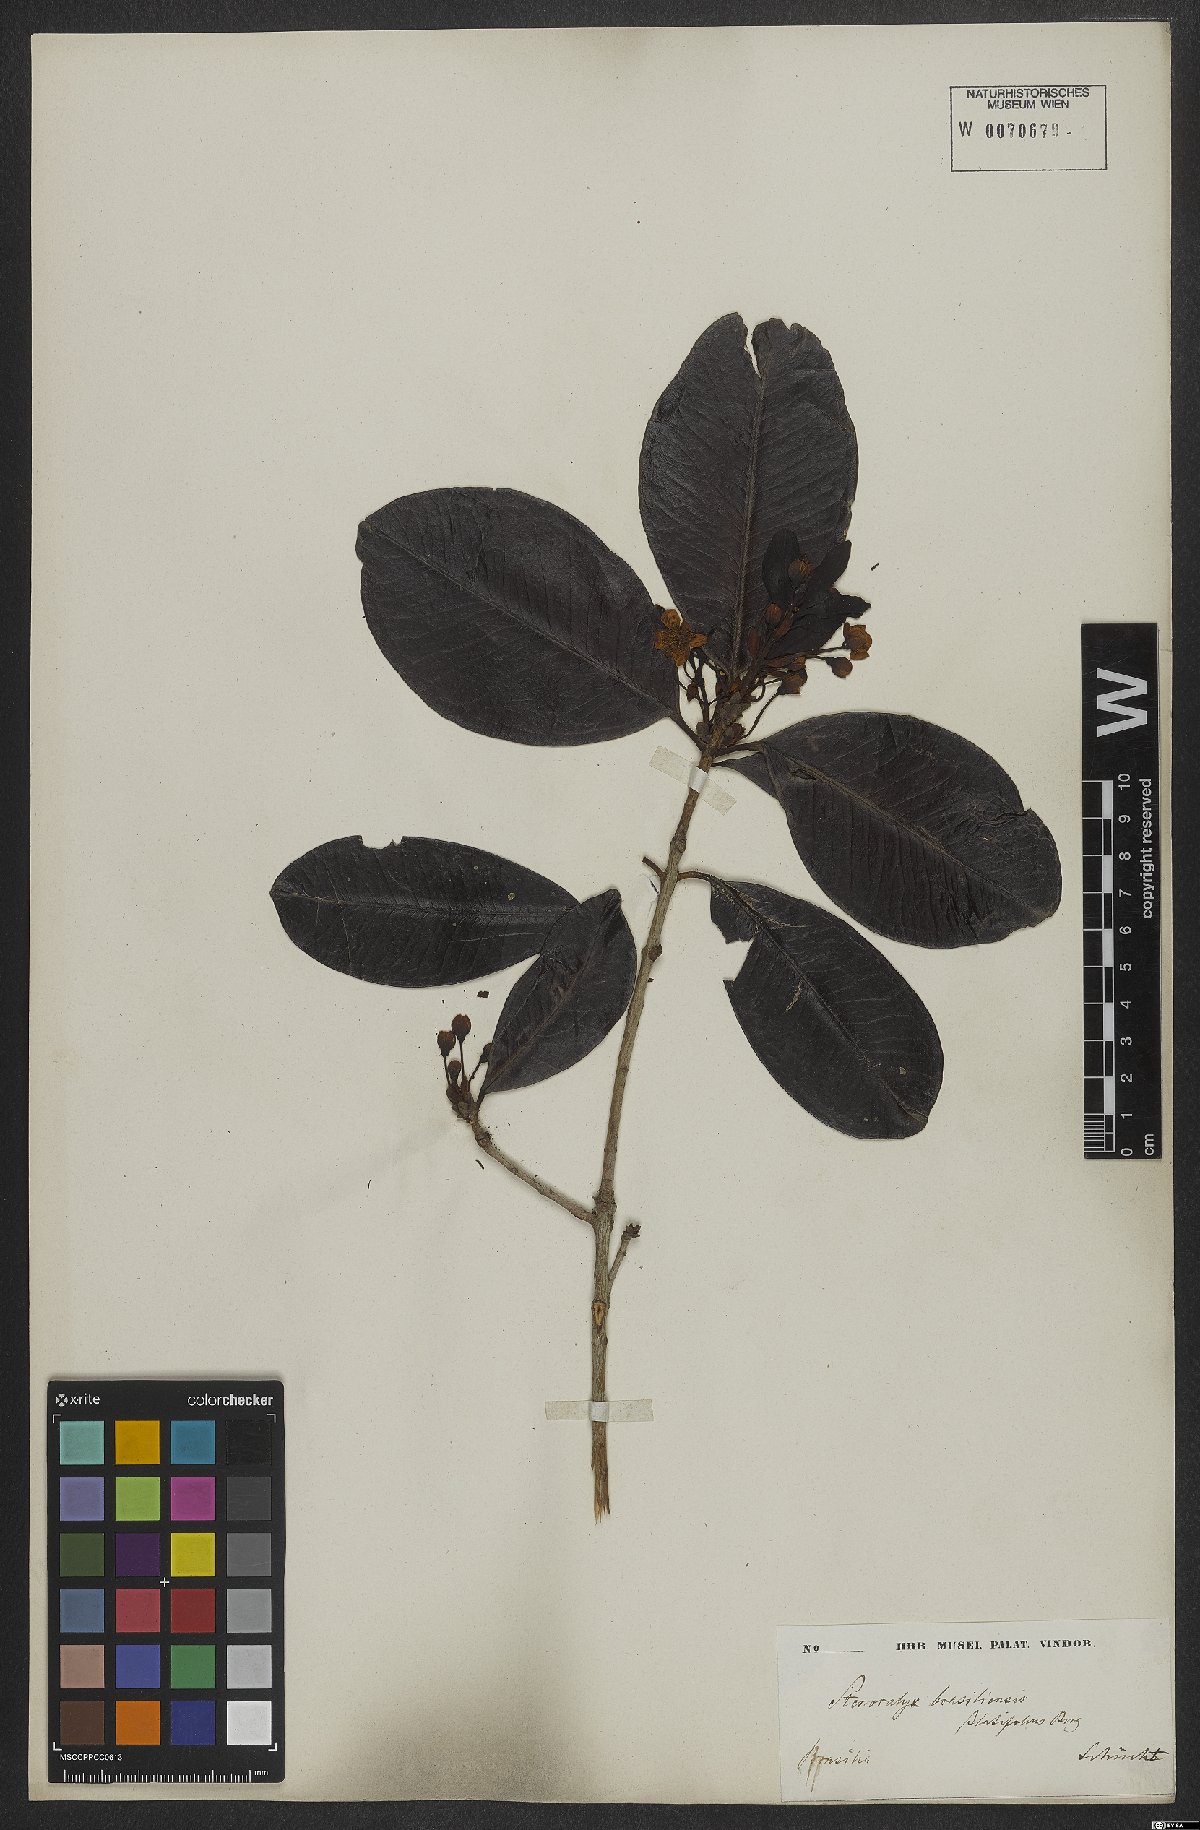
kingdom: Plantae
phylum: Tracheophyta
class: Magnoliopsida
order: Myrtales
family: Myrtaceae
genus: Eugenia
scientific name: Eugenia brasiliensis
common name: Grumichama
